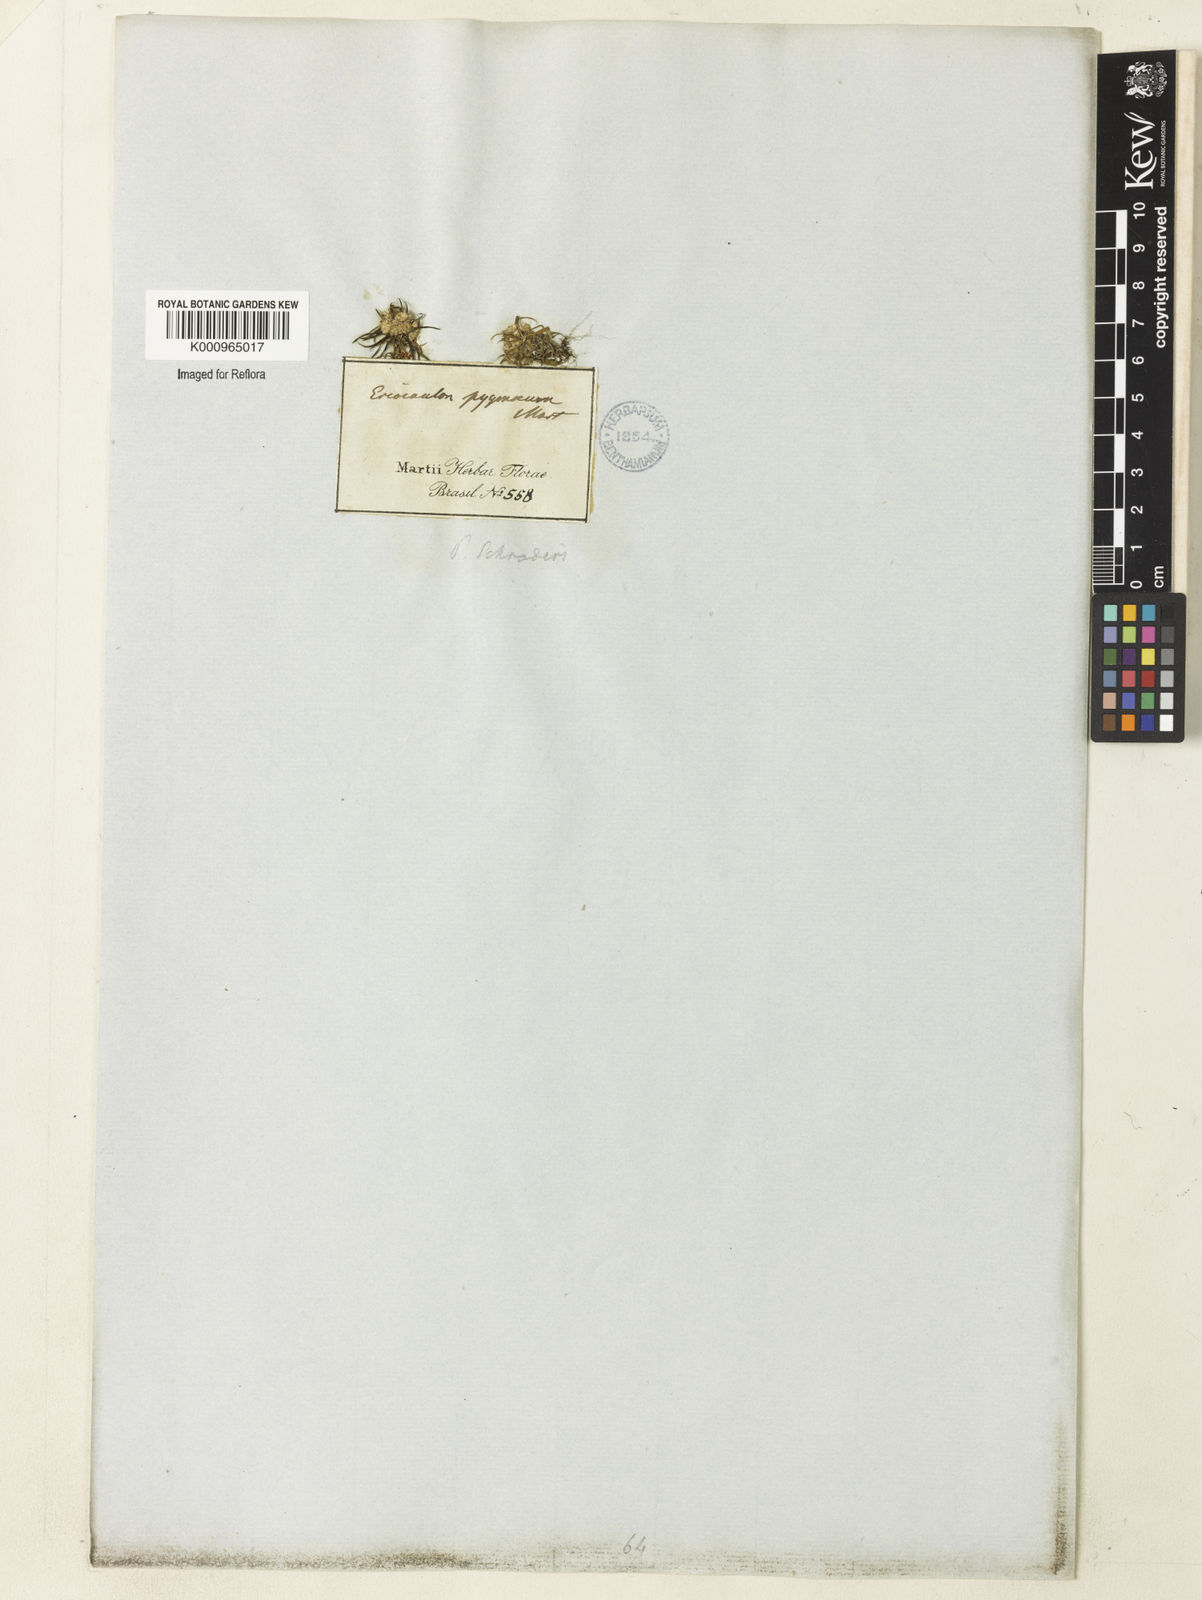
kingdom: Plantae
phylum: Tracheophyta
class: Liliopsida
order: Poales
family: Eriocaulaceae
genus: Paepalanthus
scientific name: Paepalanthus bifidus
